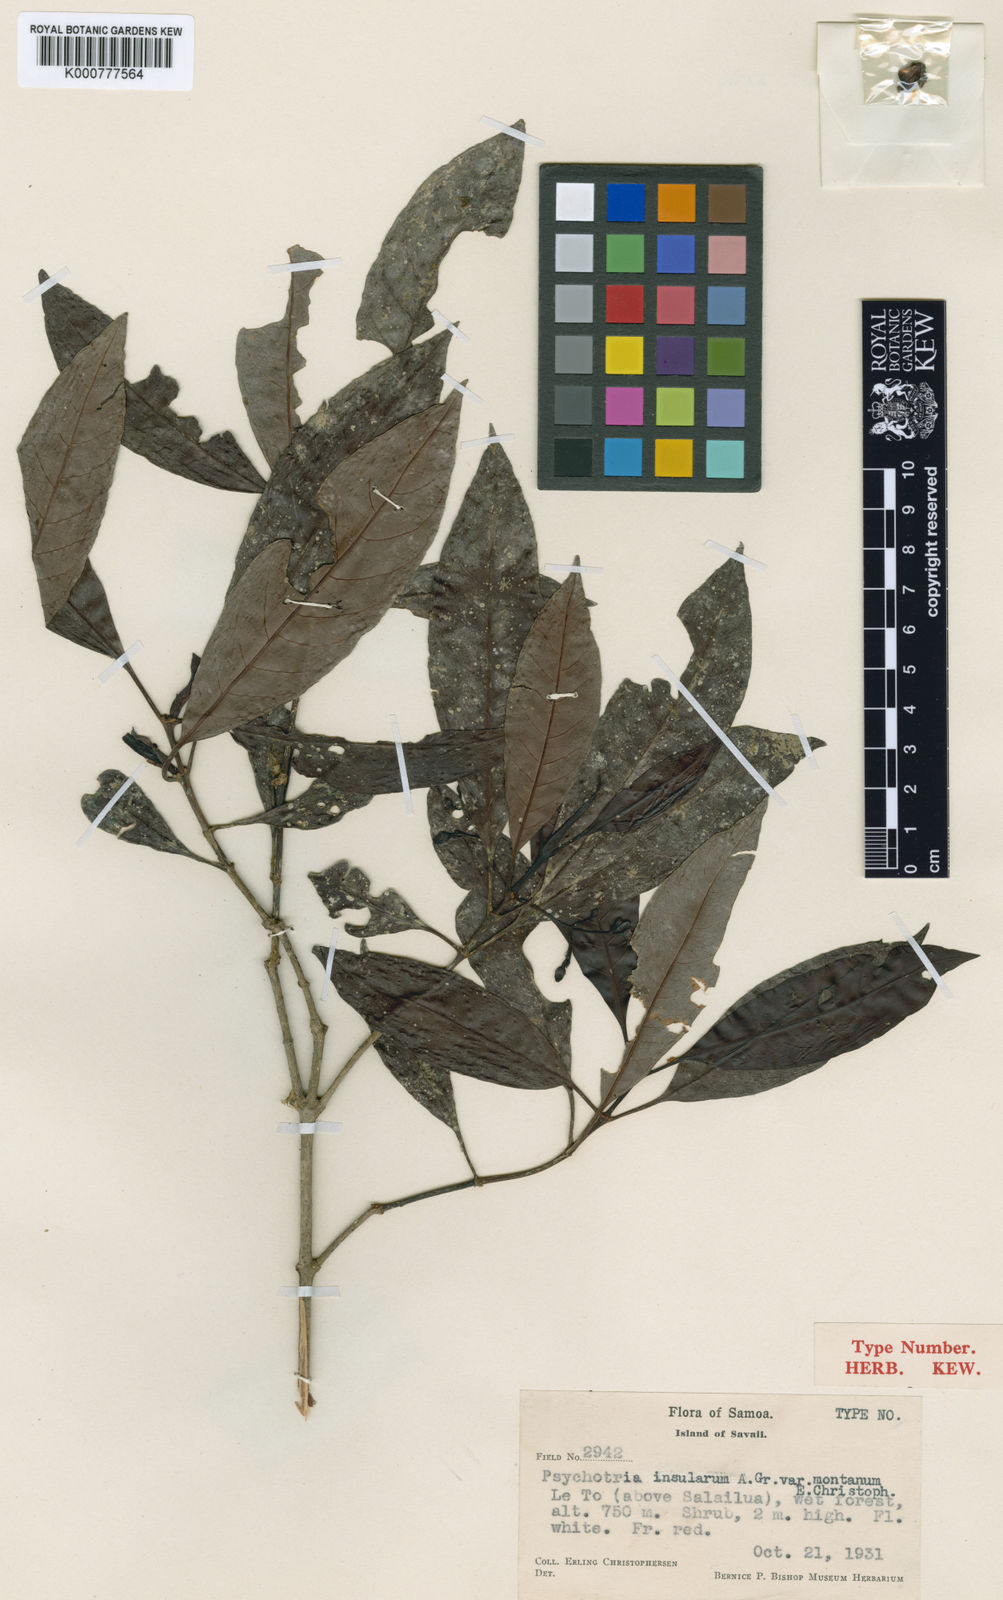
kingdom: Plantae
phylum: Tracheophyta
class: Magnoliopsida
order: Gentianales
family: Rubiaceae
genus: Psychotria
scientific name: Psychotria insularum
